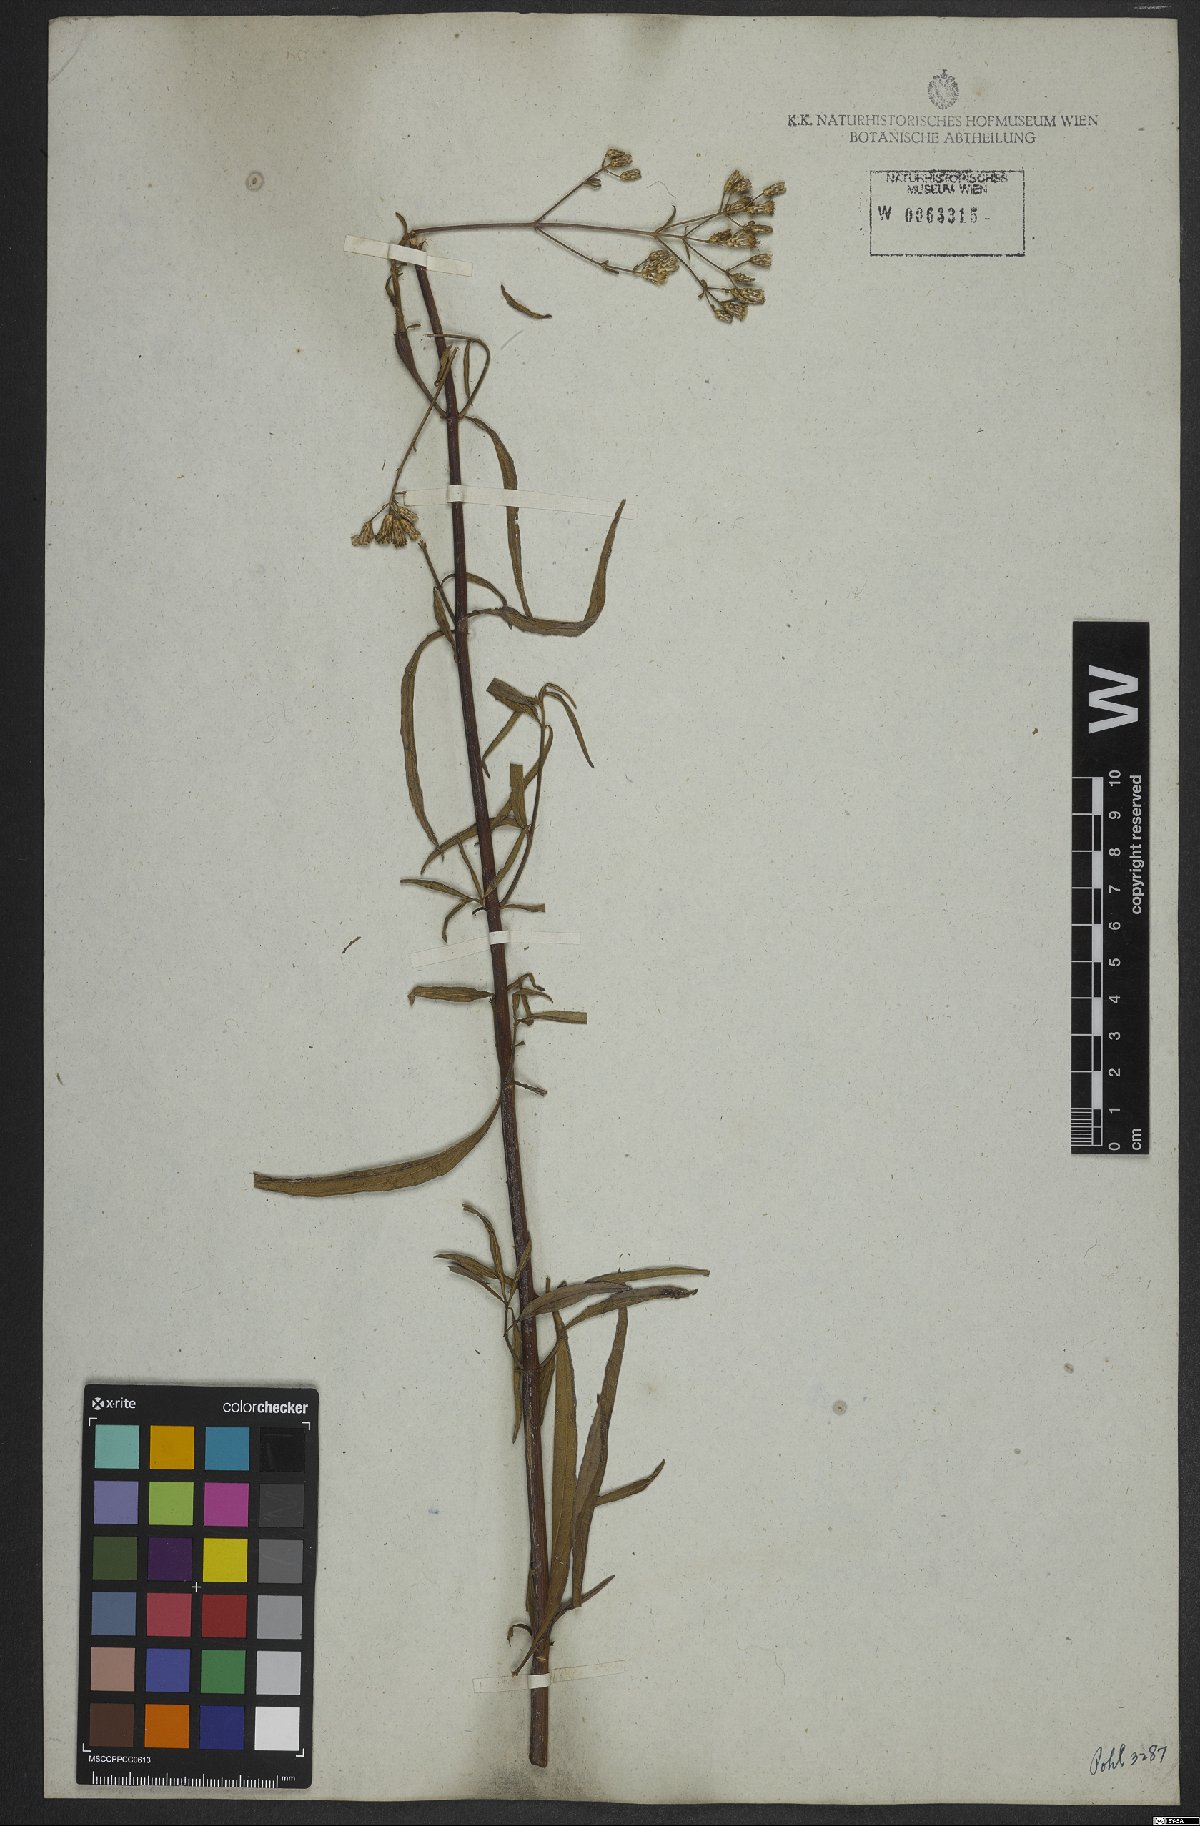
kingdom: Plantae
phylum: Tracheophyta
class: Magnoliopsida
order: Asterales
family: Asteraceae
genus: Chromolaena
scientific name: Chromolaena ivifolia
